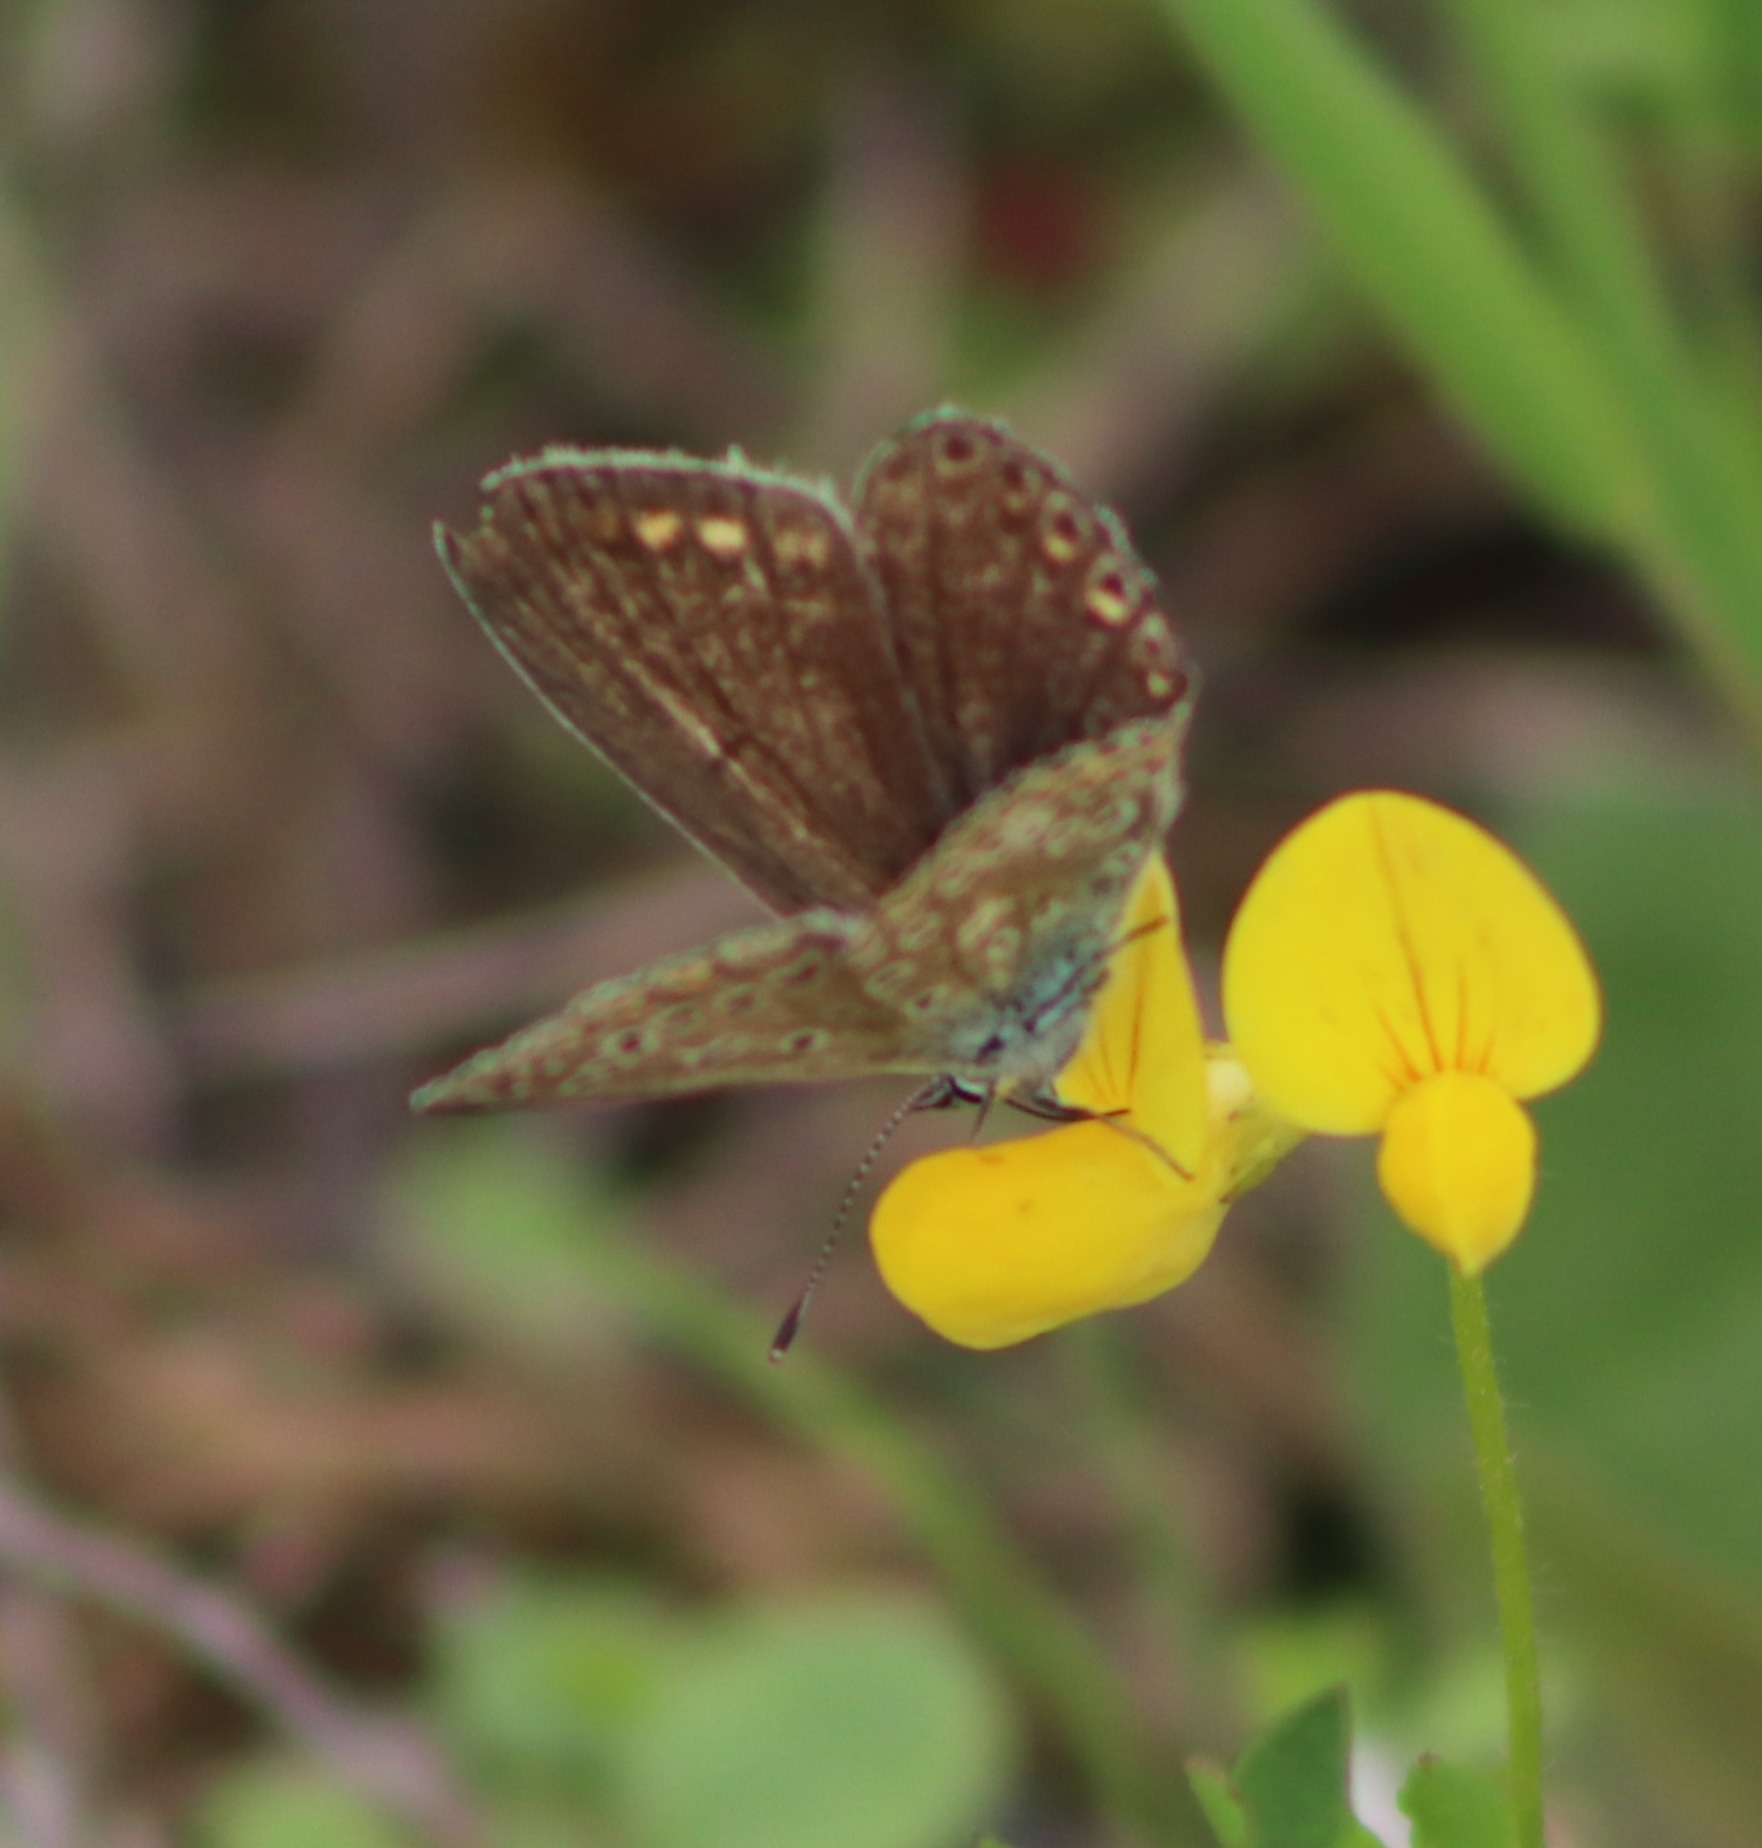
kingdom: Animalia
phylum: Arthropoda
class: Insecta
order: Lepidoptera
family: Lycaenidae
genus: Polyommatus
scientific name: Polyommatus icarus
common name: Almindelig blåfugl
